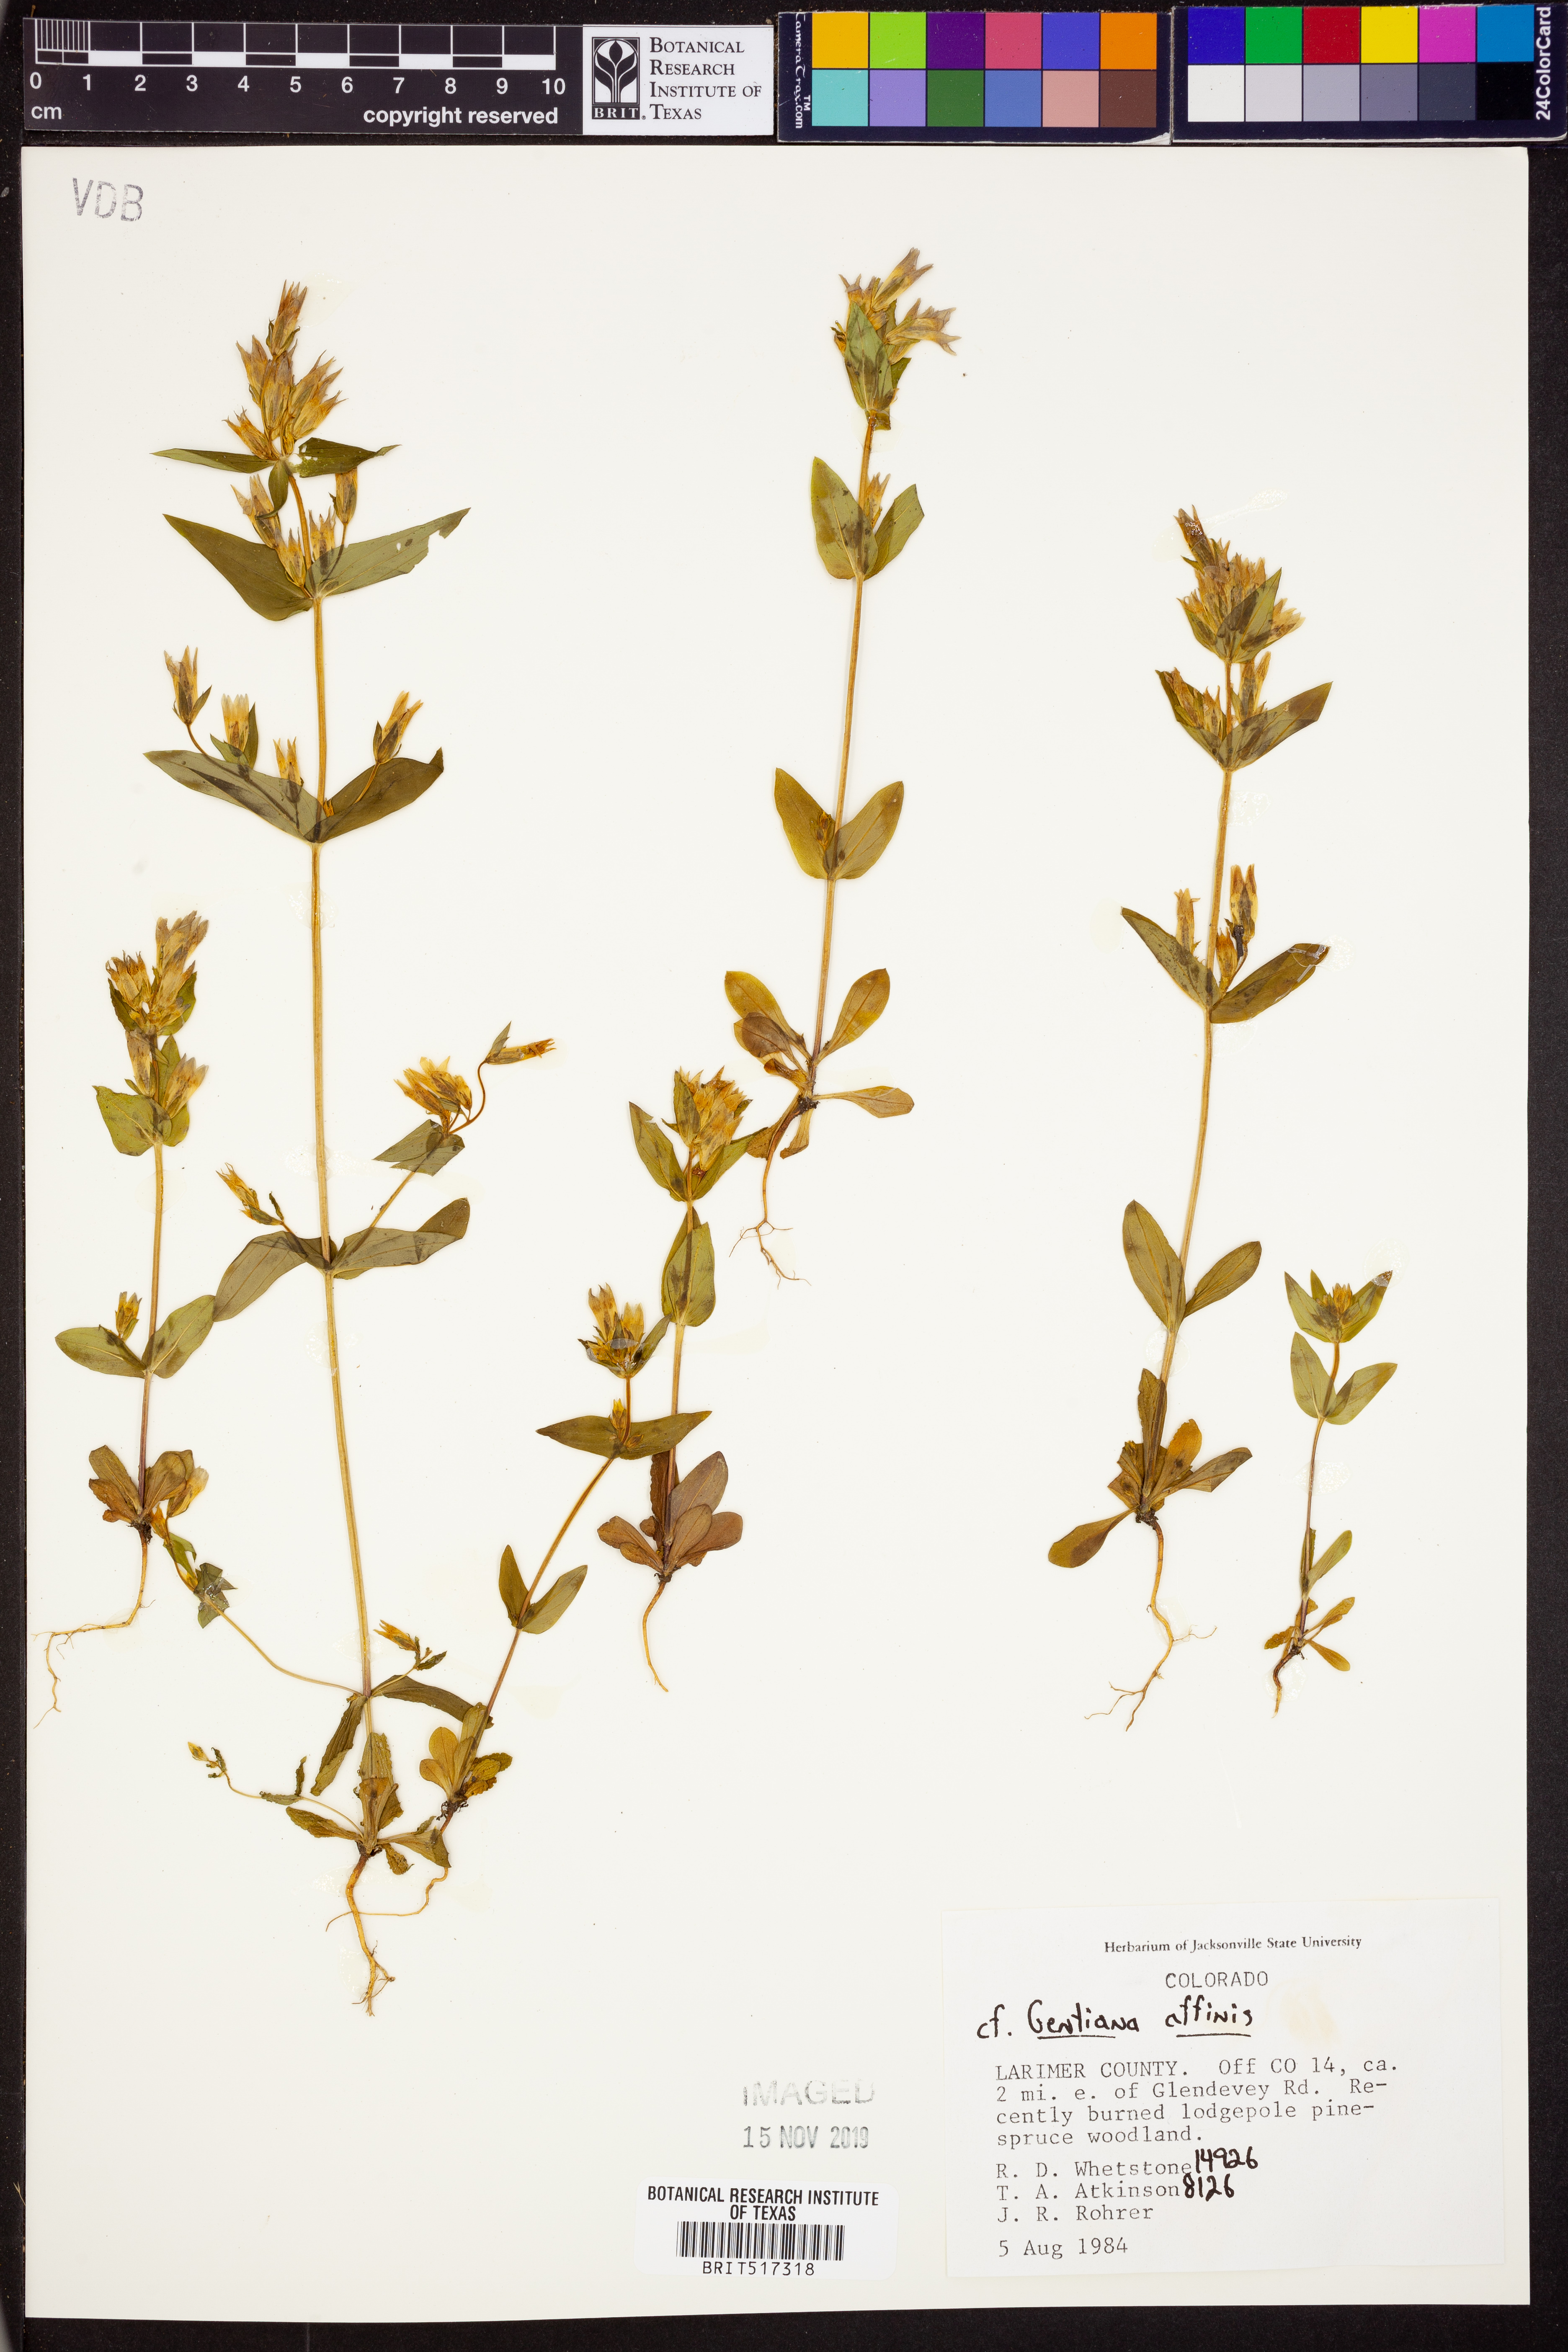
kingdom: Plantae
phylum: Tracheophyta
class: Magnoliopsida
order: Gentianales
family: Gentianaceae
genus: Gentiana
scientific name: Gentiana affinis
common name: Rocky mountain gentian
